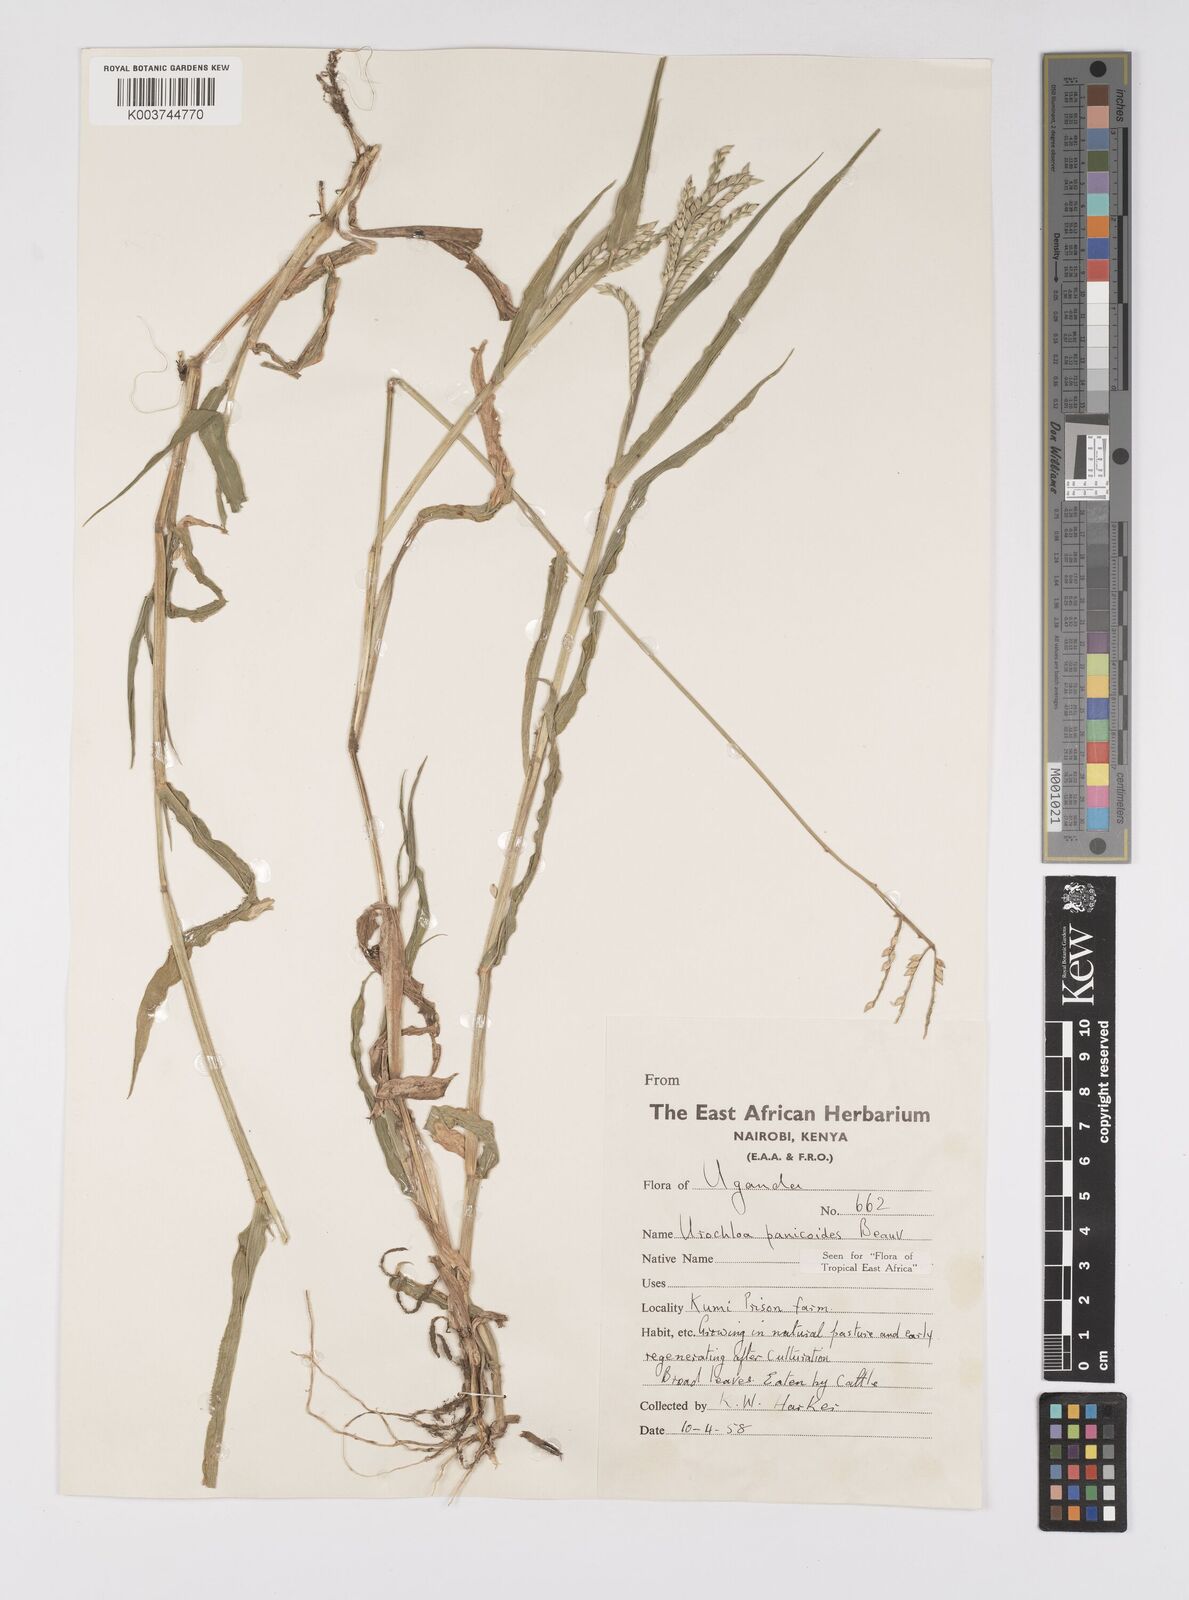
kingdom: Plantae
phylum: Tracheophyta
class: Liliopsida
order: Poales
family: Poaceae
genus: Urochloa
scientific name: Urochloa panicoides
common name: Sharp-flowered signal-grass
